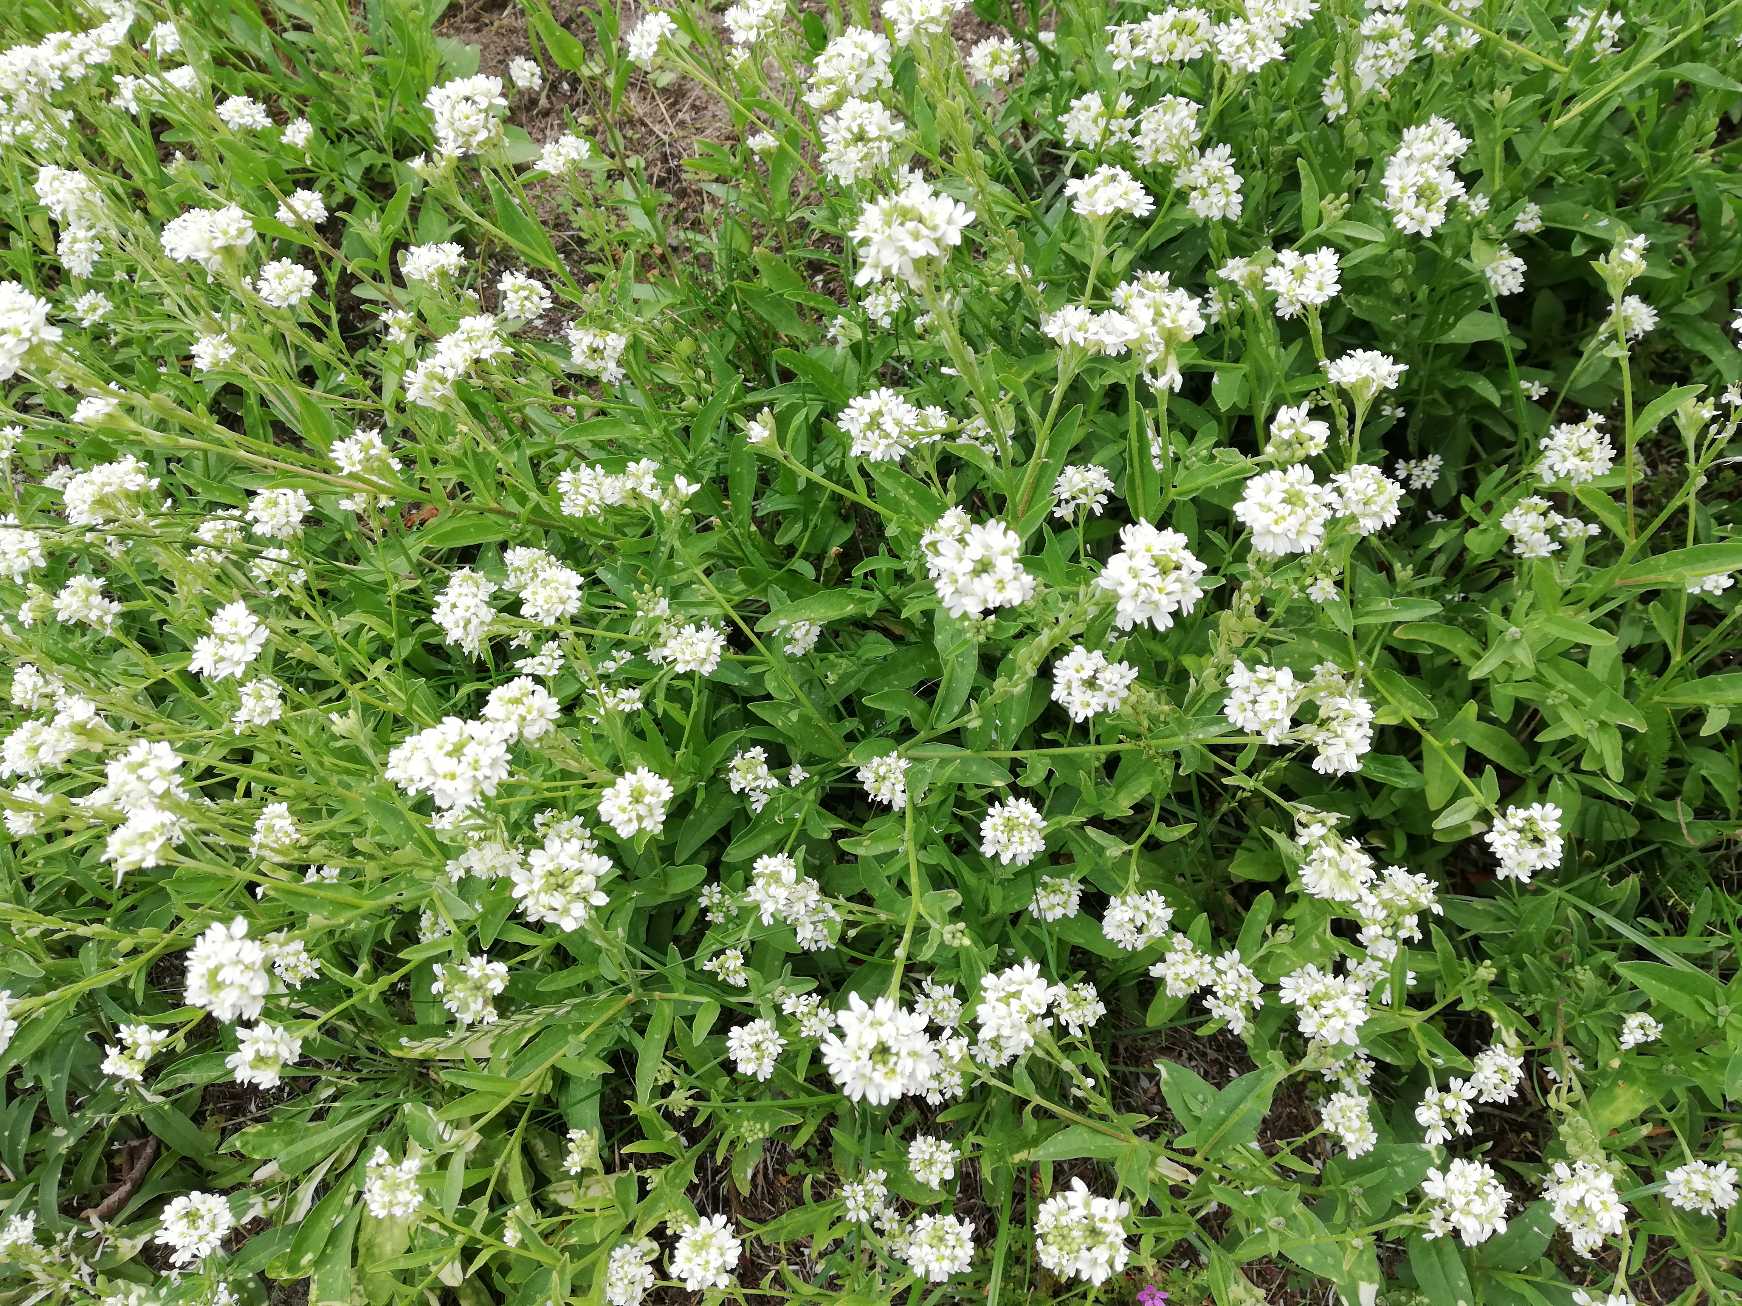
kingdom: Plantae
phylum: Tracheophyta
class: Magnoliopsida
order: Brassicales
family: Brassicaceae
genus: Berteroa
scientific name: Berteroa incana
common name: Kløvplade
